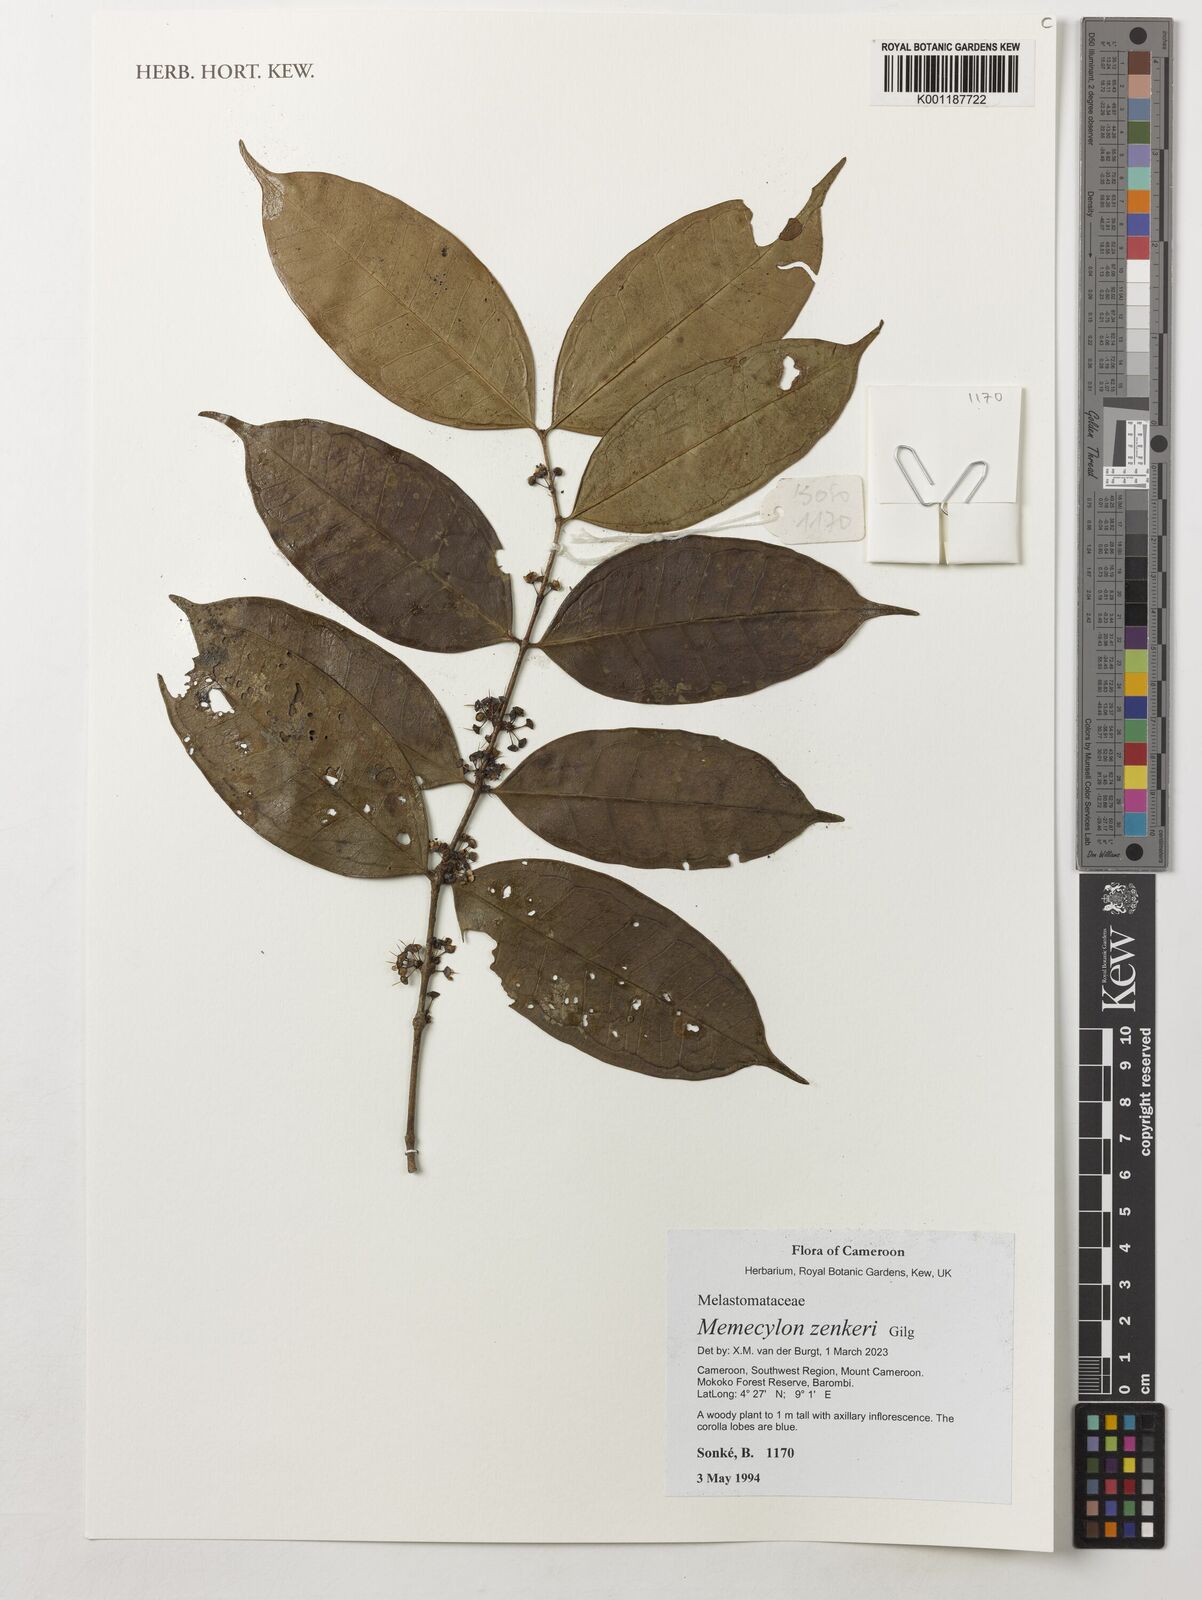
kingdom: Plantae
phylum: Tracheophyta
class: Magnoliopsida
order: Myrtales
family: Melastomataceae
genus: Memecylon
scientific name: Memecylon zenkeri
